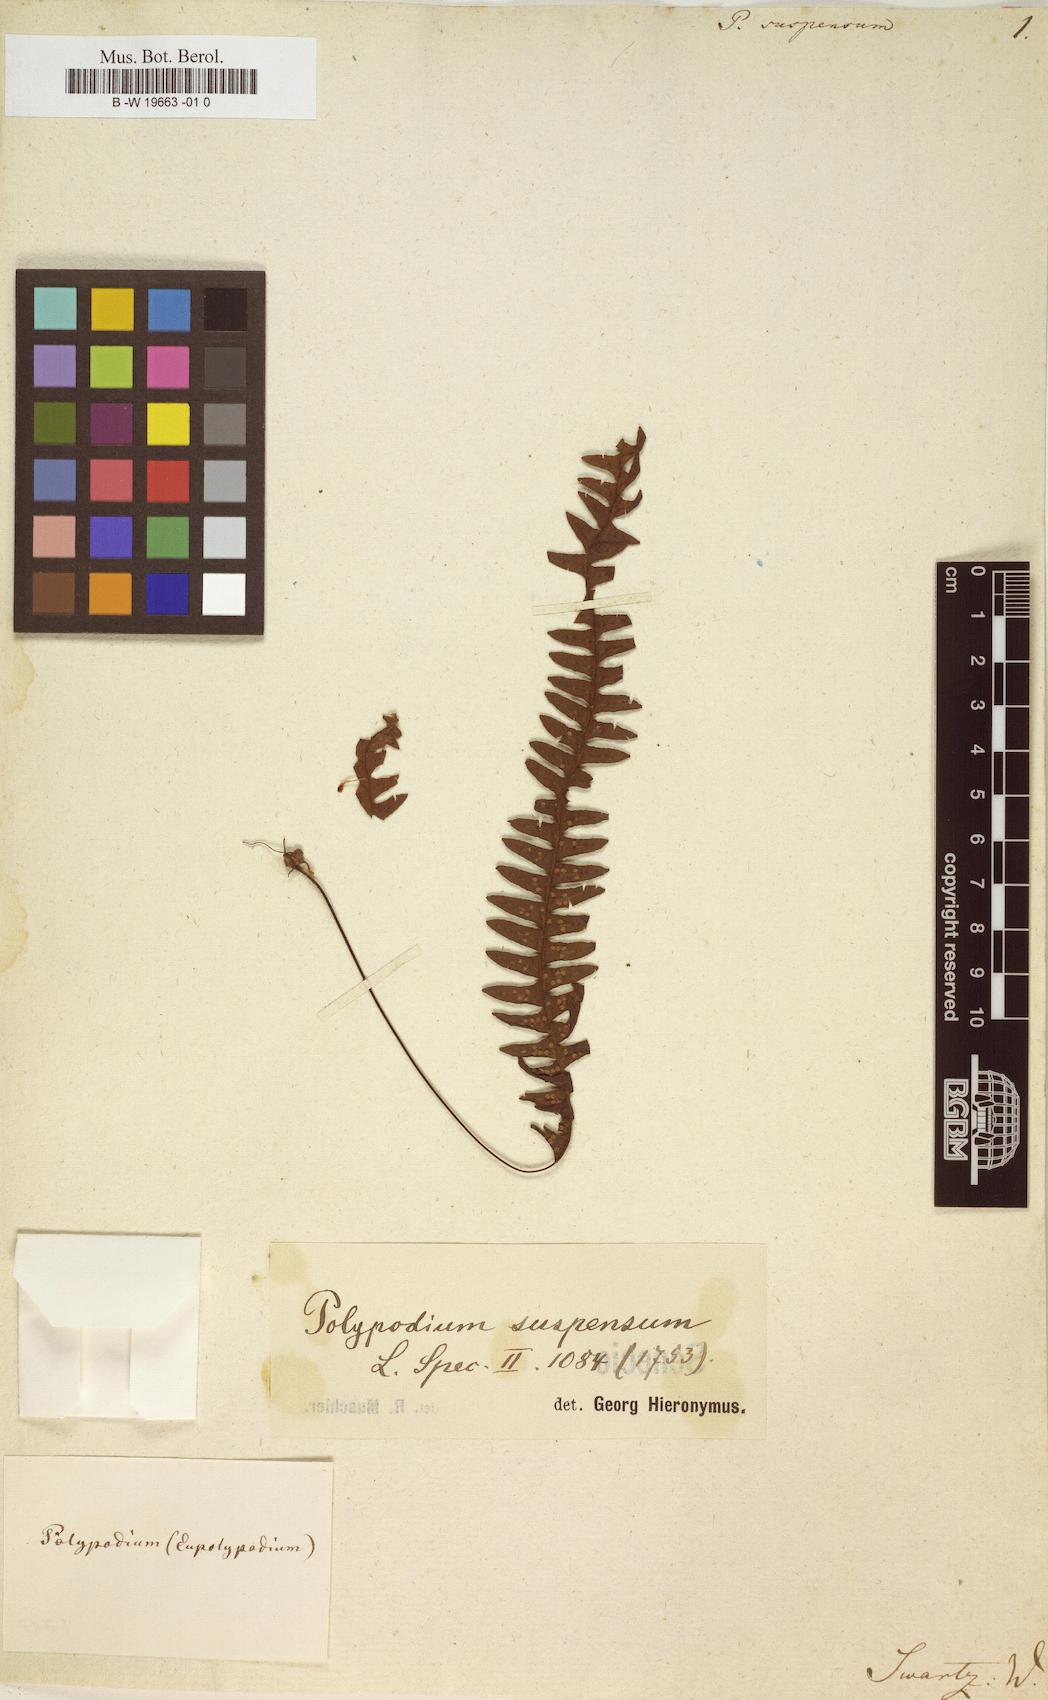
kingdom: Plantae
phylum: Tracheophyta
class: Polypodiopsida
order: Polypodiales
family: Polypodiaceae
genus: Lellingeria
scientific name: Lellingeria suspensa
